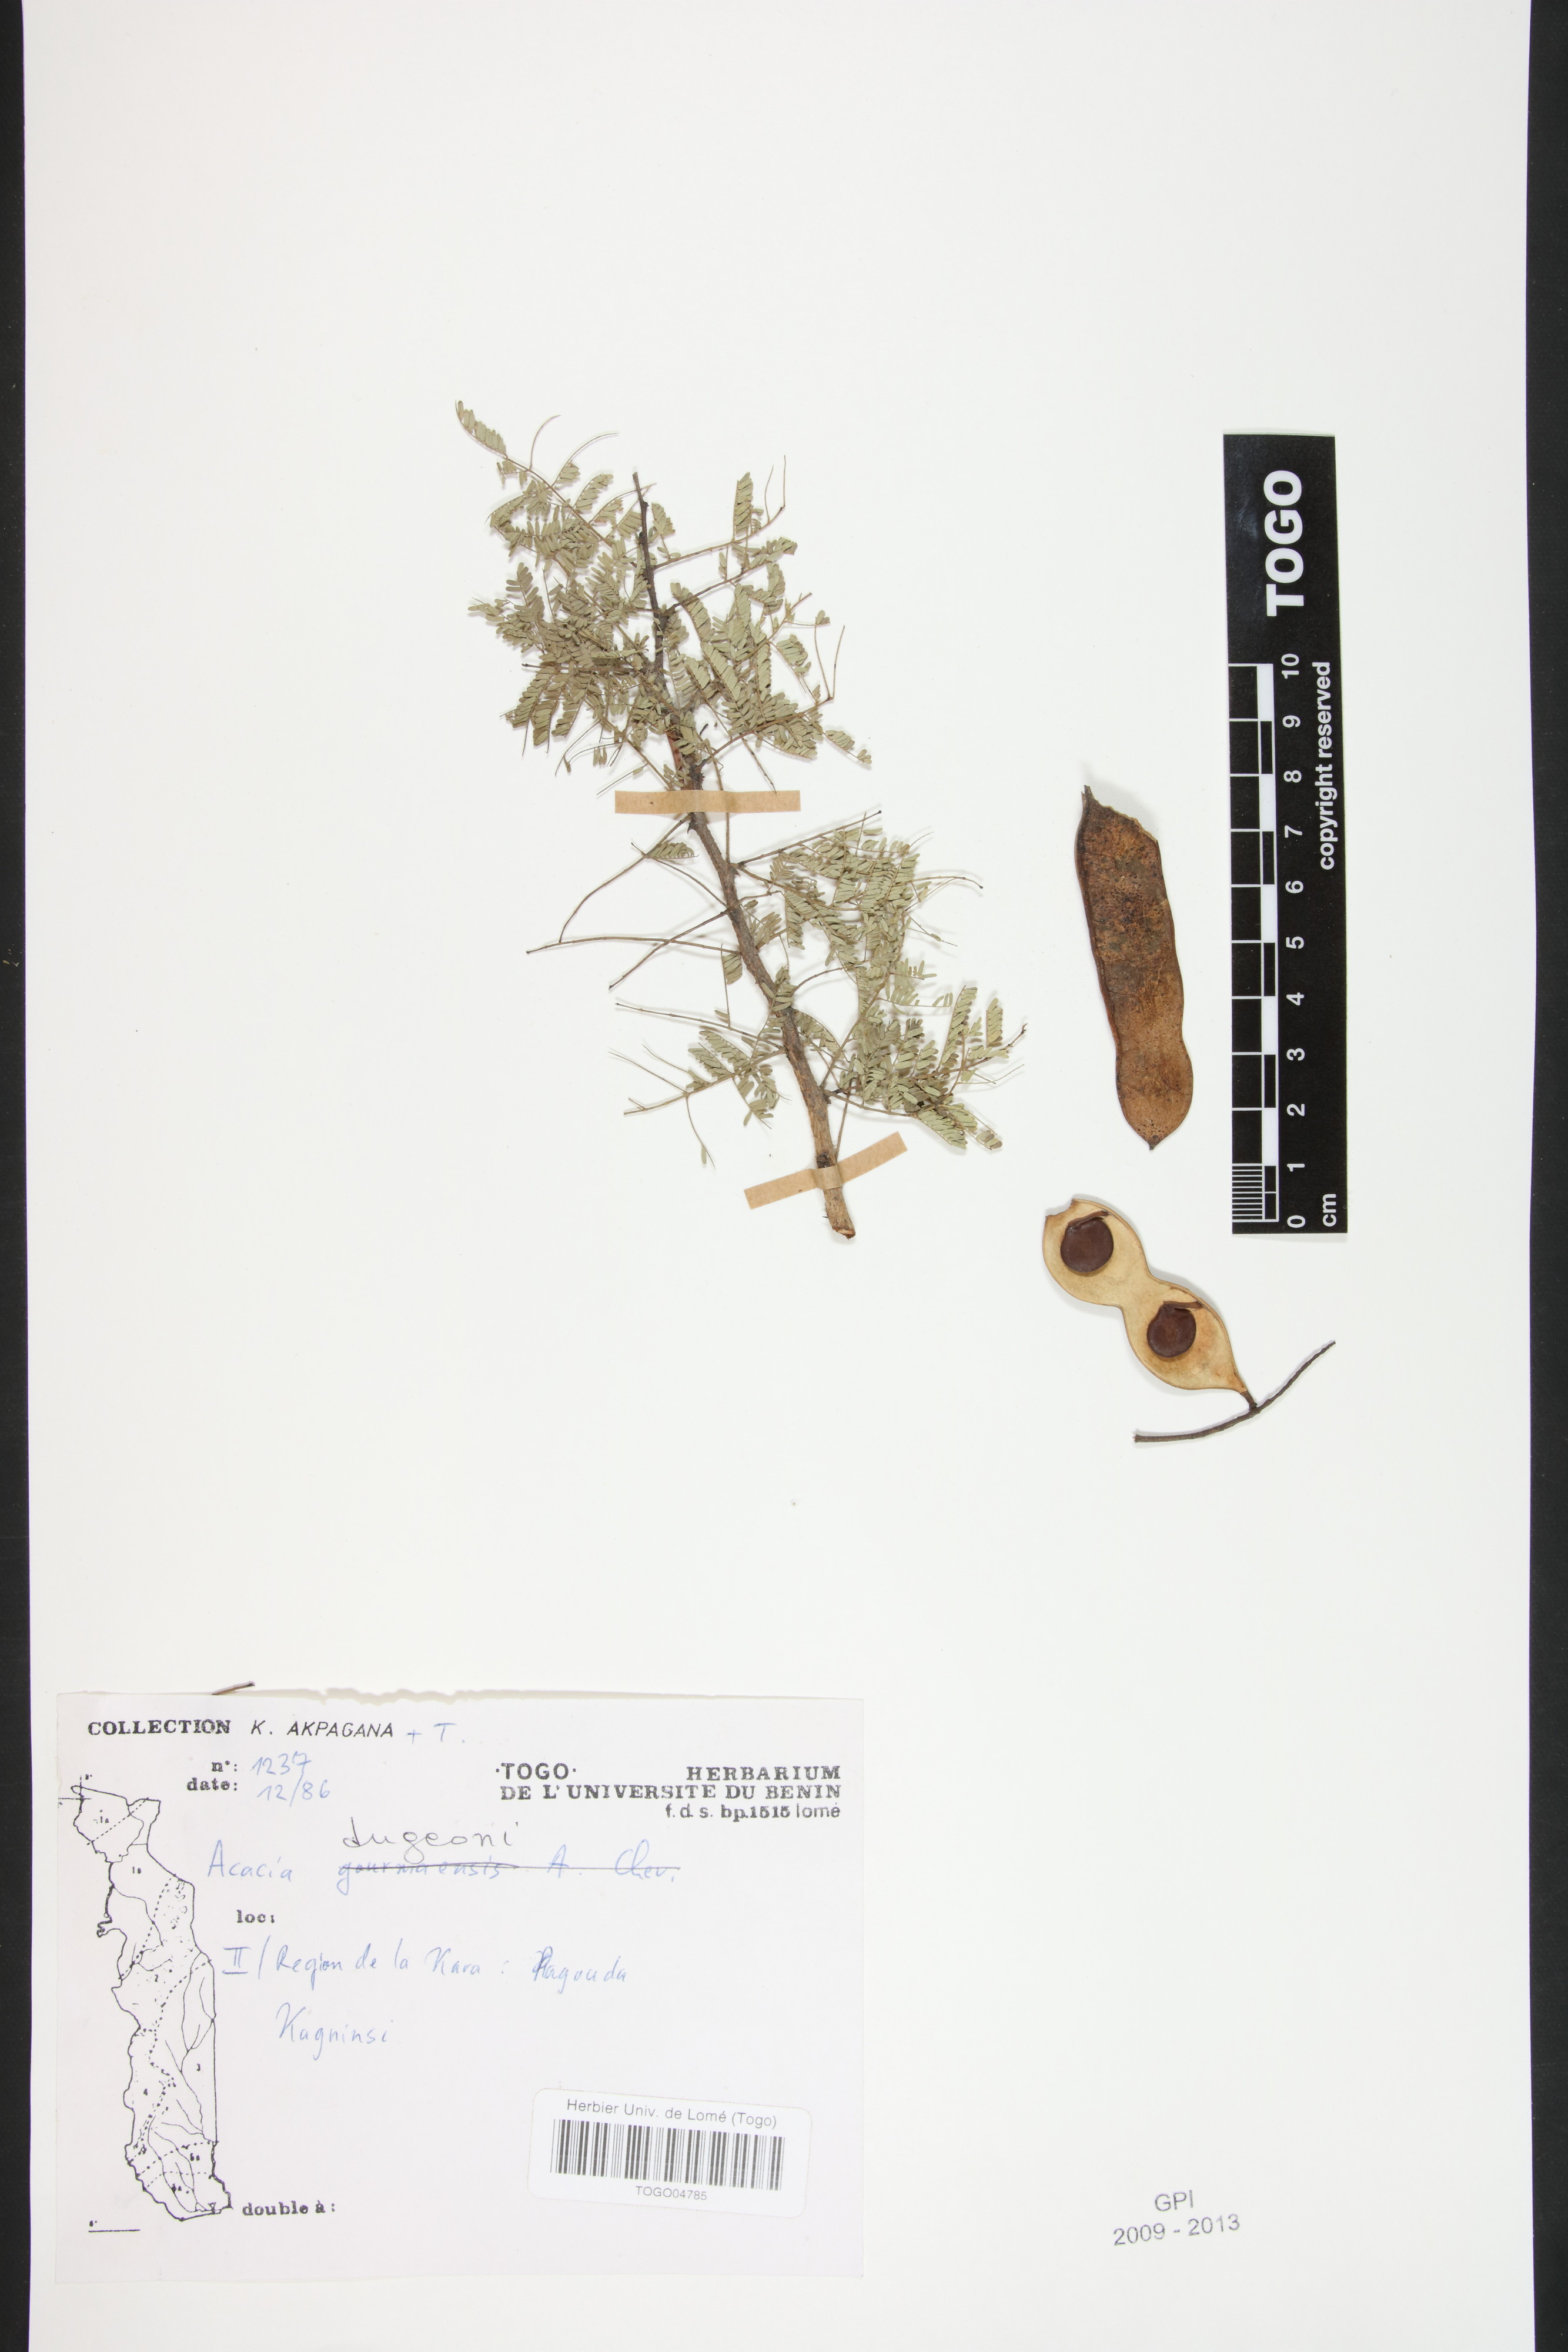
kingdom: Plantae
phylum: Tracheophyta
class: Magnoliopsida
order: Fabales
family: Fabaceae
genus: Senegalia
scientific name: Senegalia dudgeonii
